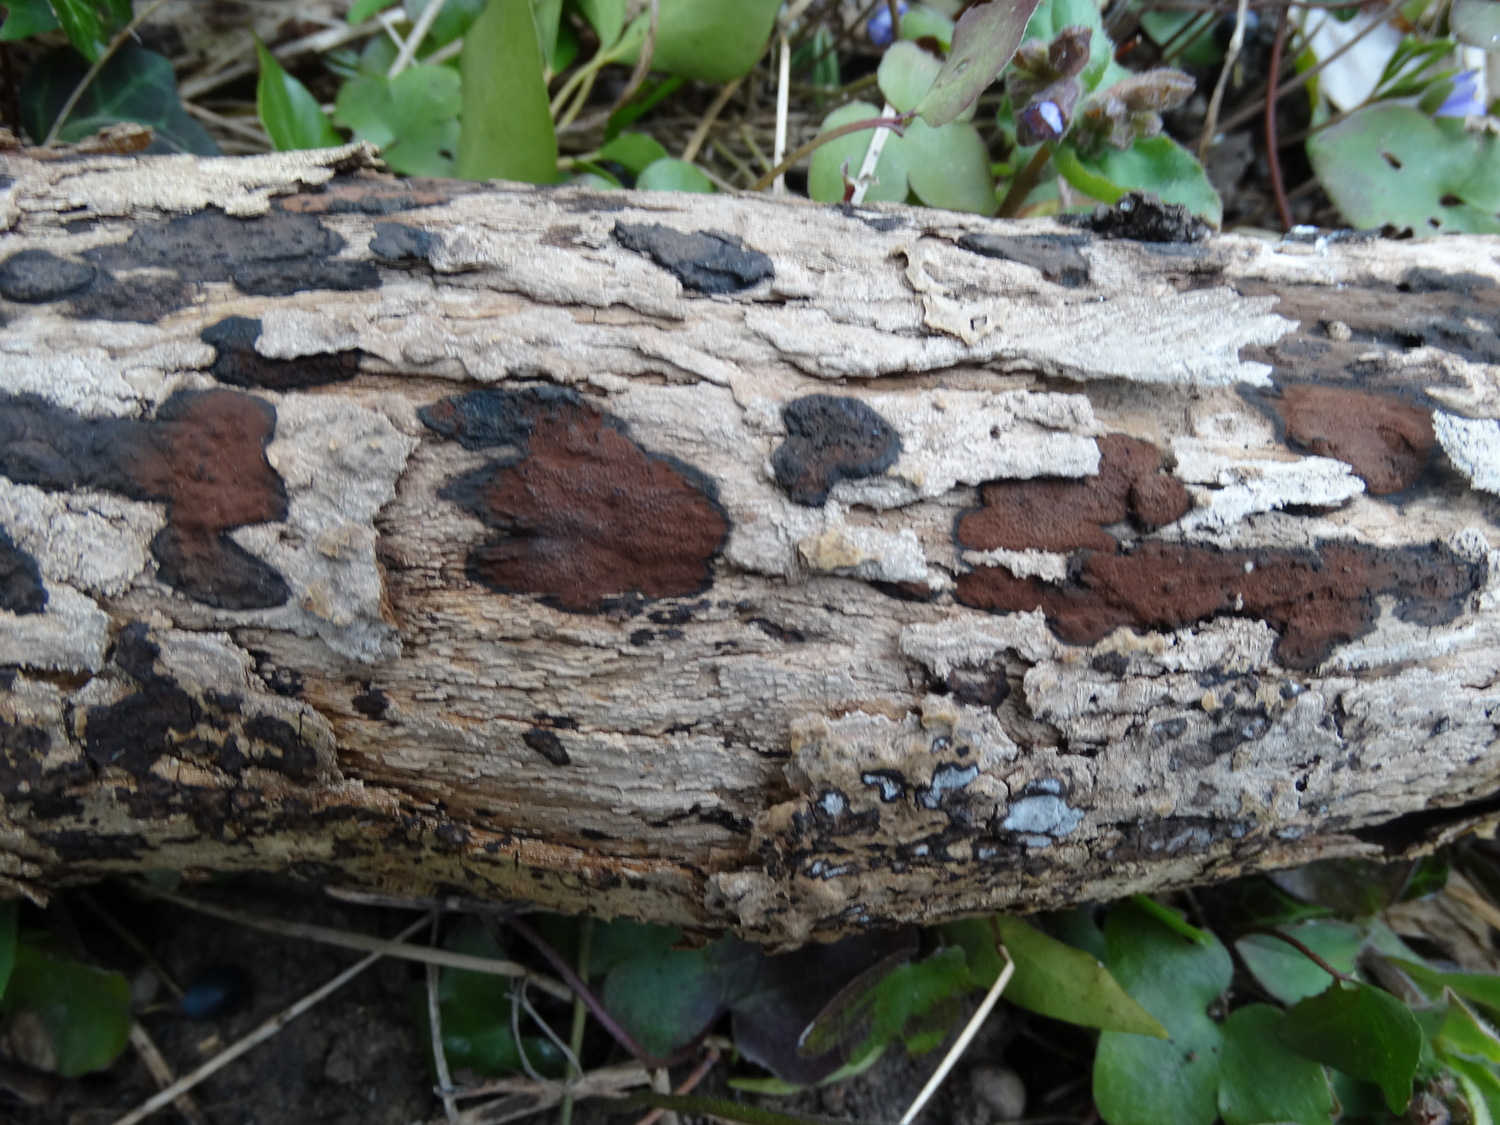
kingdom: Fungi
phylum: Ascomycota
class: Sordariomycetes
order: Xylariales
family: Hypoxylaceae
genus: Hypoxylon
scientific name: Hypoxylon petriniae
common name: nedsænket kulbær
